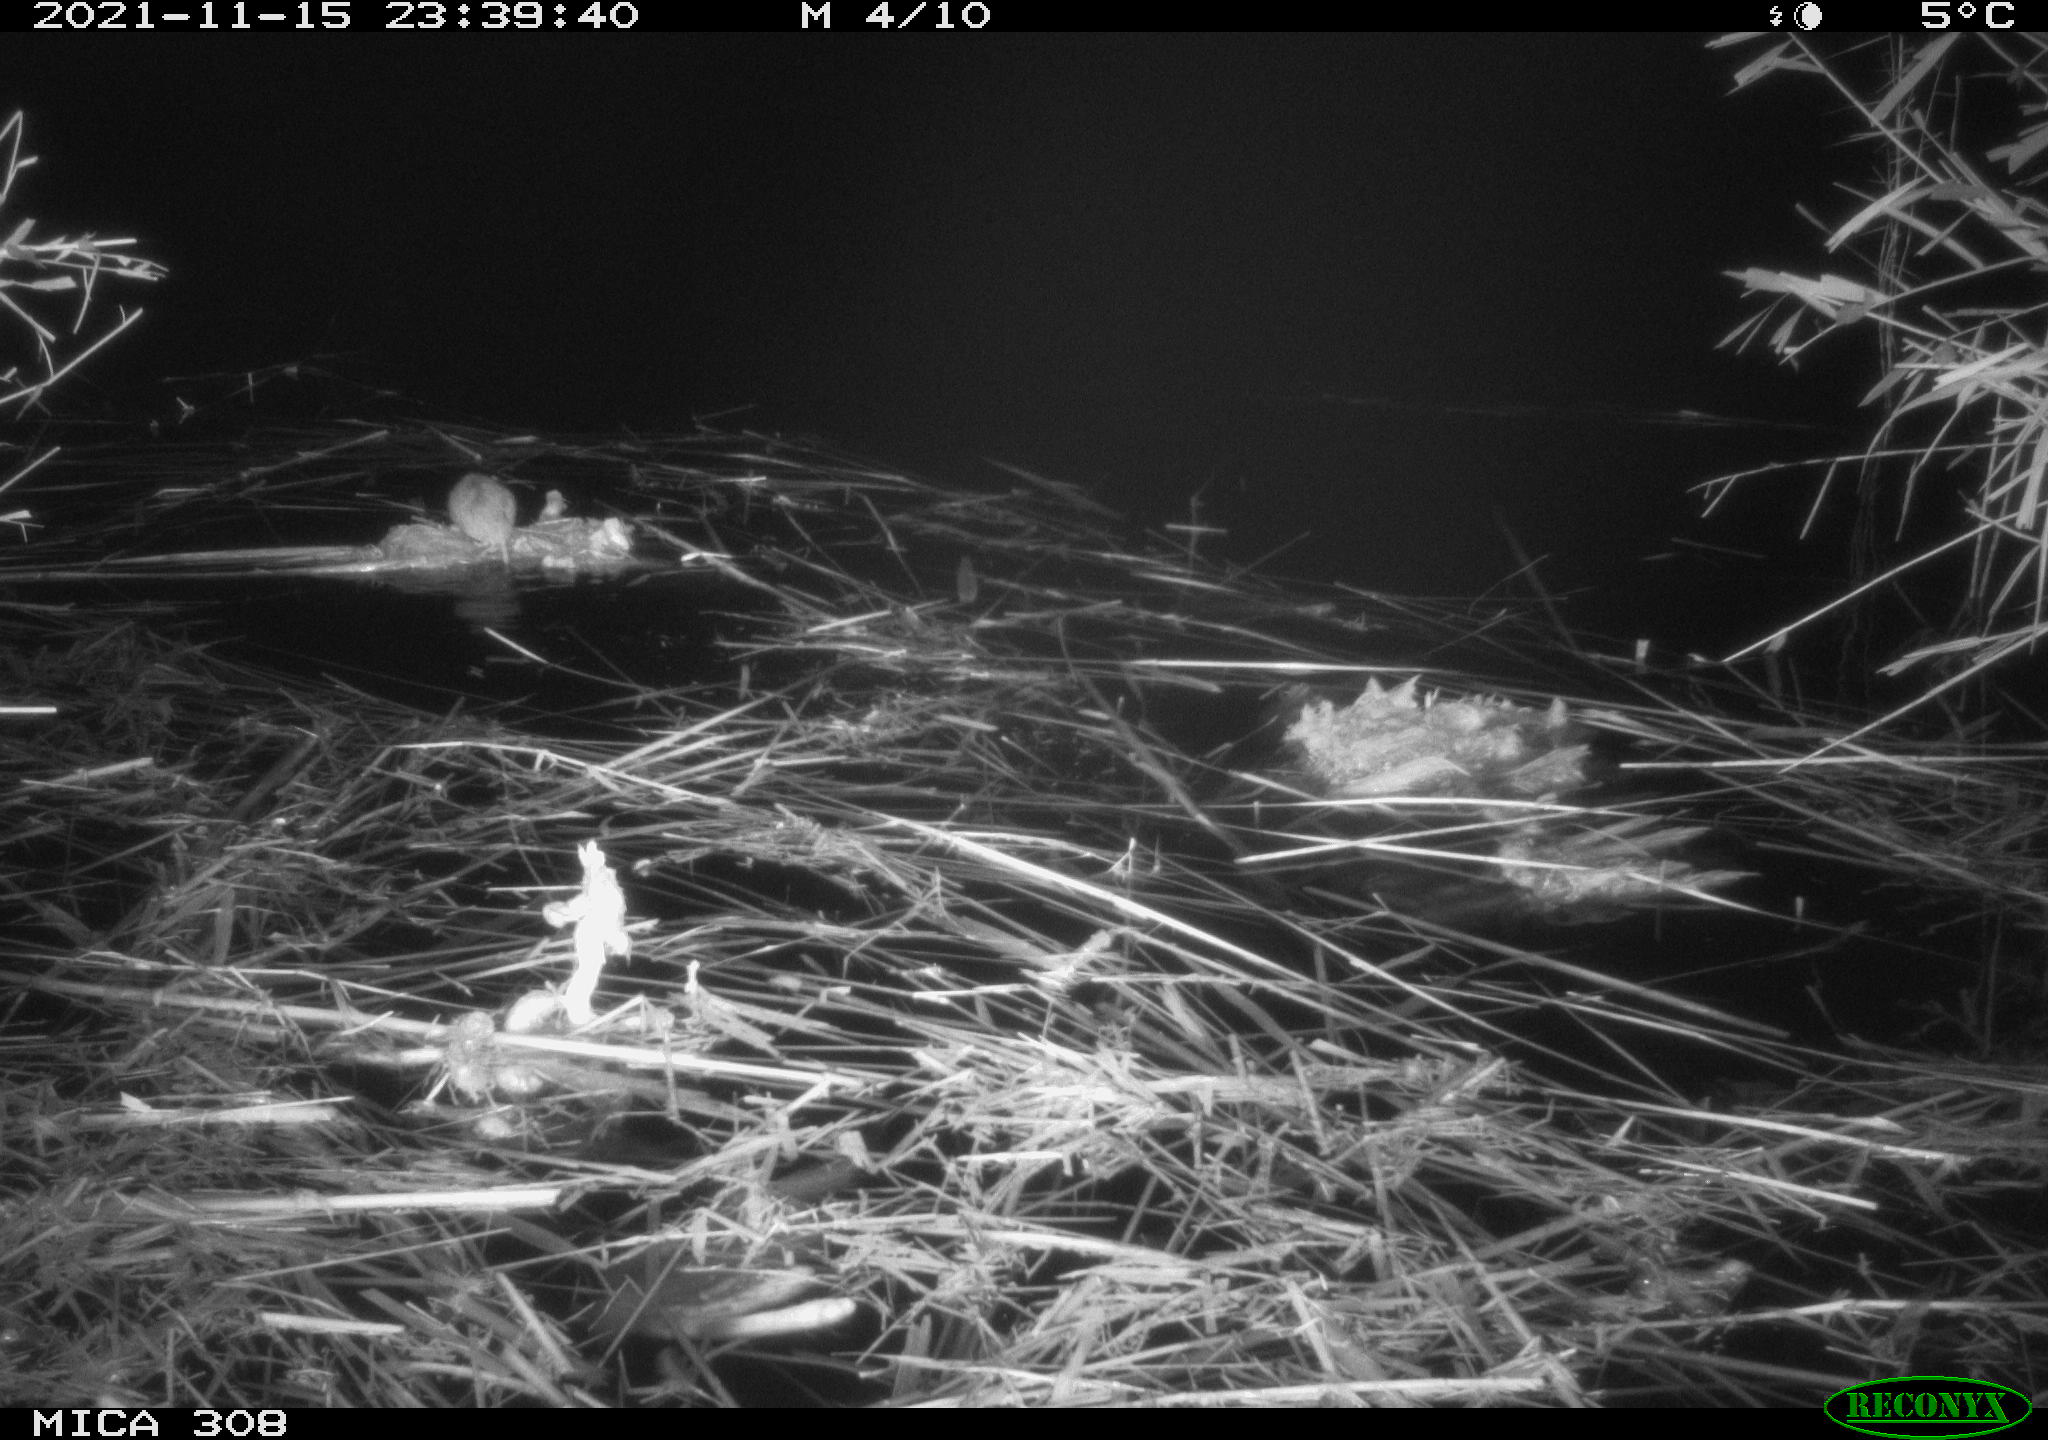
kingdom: Animalia
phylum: Chordata
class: Mammalia
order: Rodentia
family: Muridae
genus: Rattus
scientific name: Rattus norvegicus
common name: Brown rat
